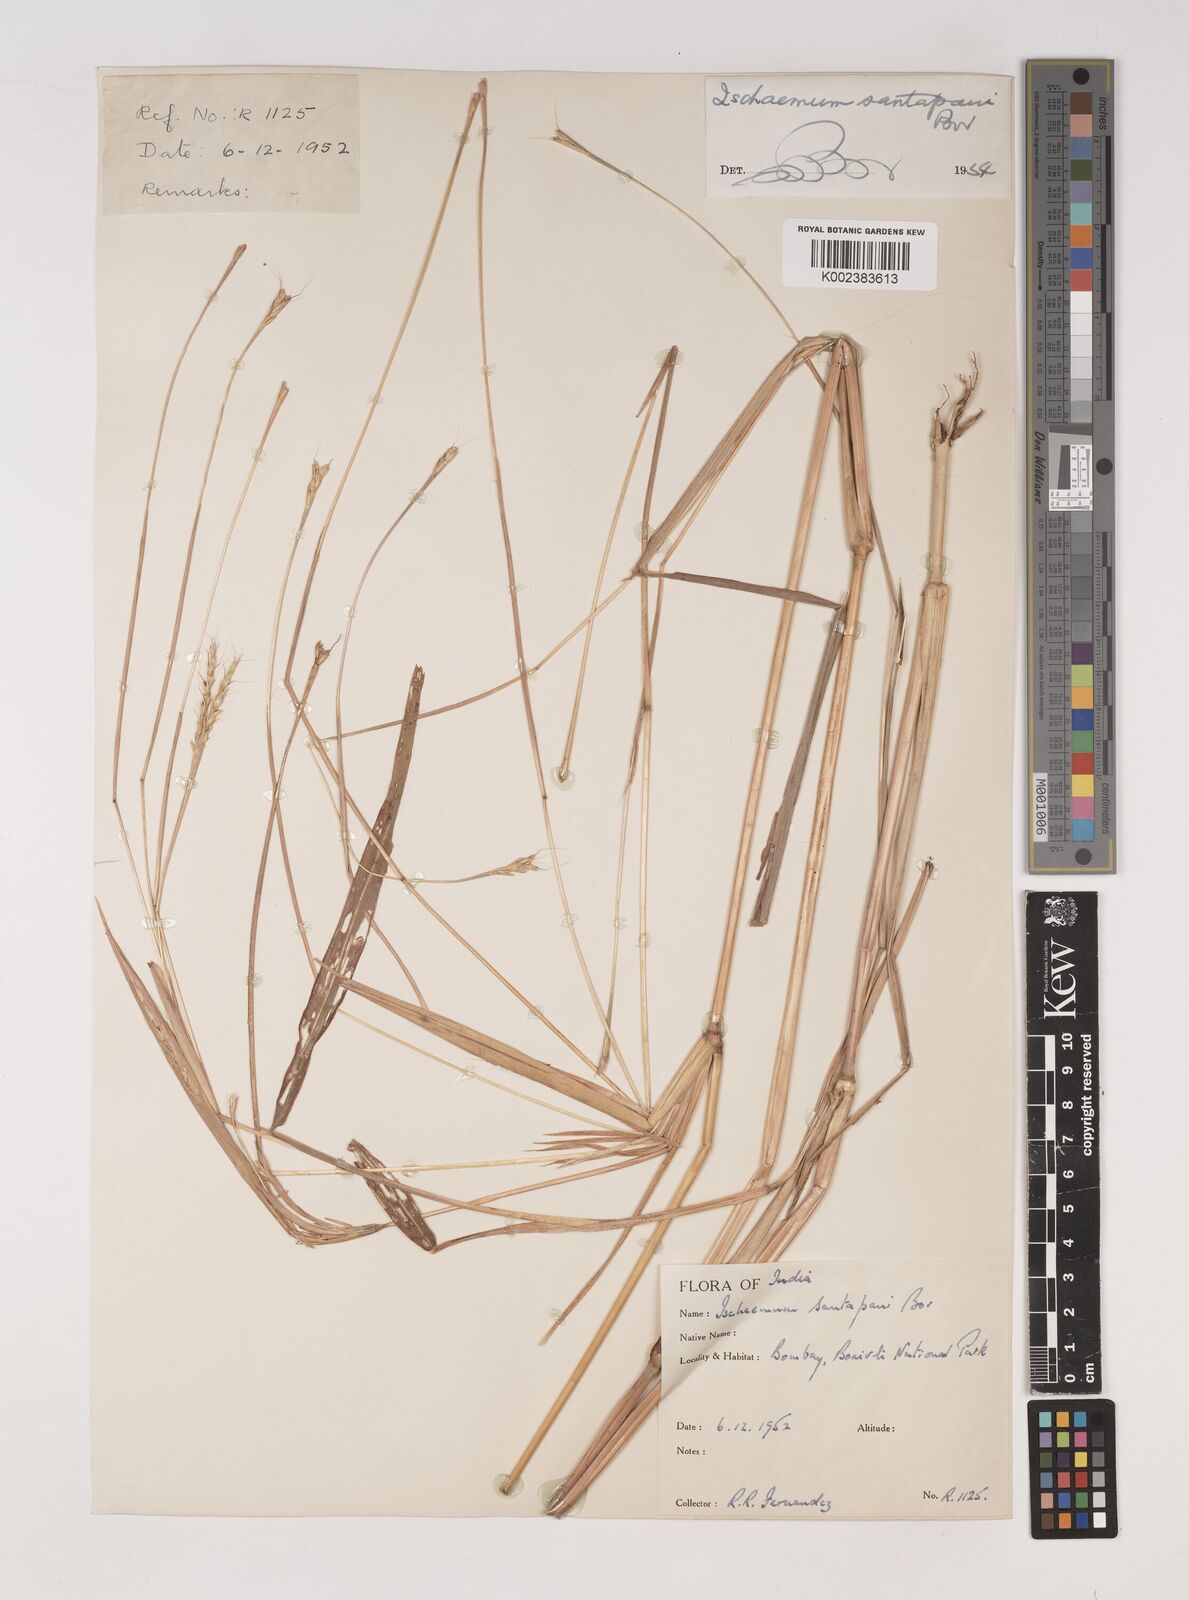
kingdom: Plantae
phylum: Tracheophyta
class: Liliopsida
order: Poales
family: Poaceae
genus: Ischaemum
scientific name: Ischaemum santapaui
